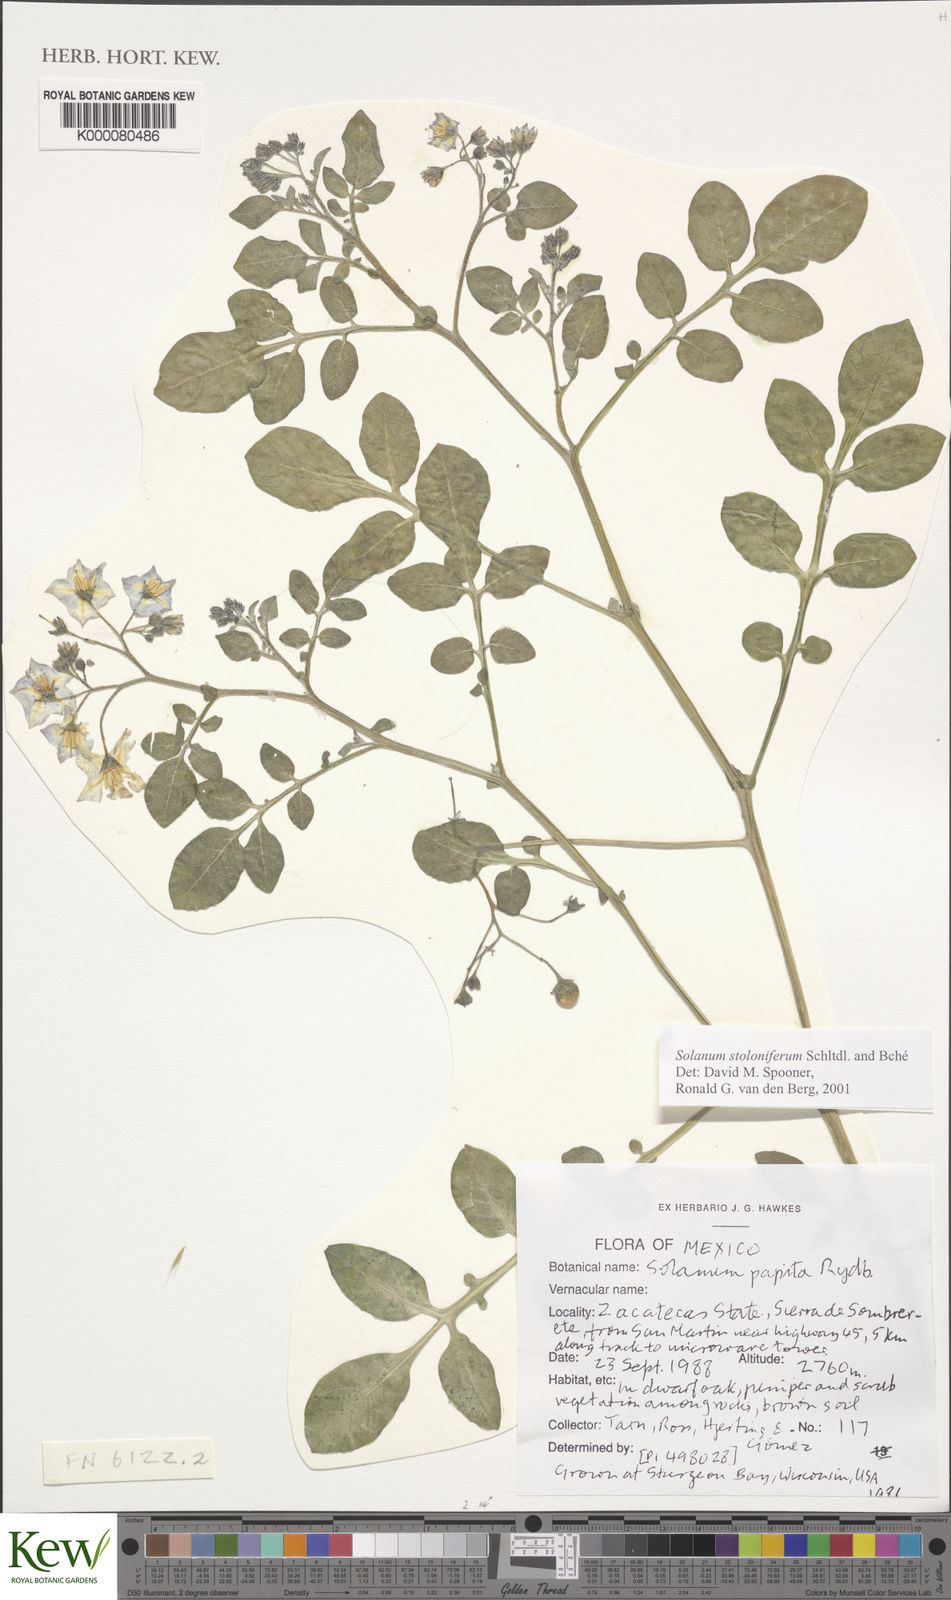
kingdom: Plantae
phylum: Tracheophyta
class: Magnoliopsida
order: Solanales
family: Solanaceae
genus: Solanum
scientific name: Solanum stoloniferum
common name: Fendler's nighshade
